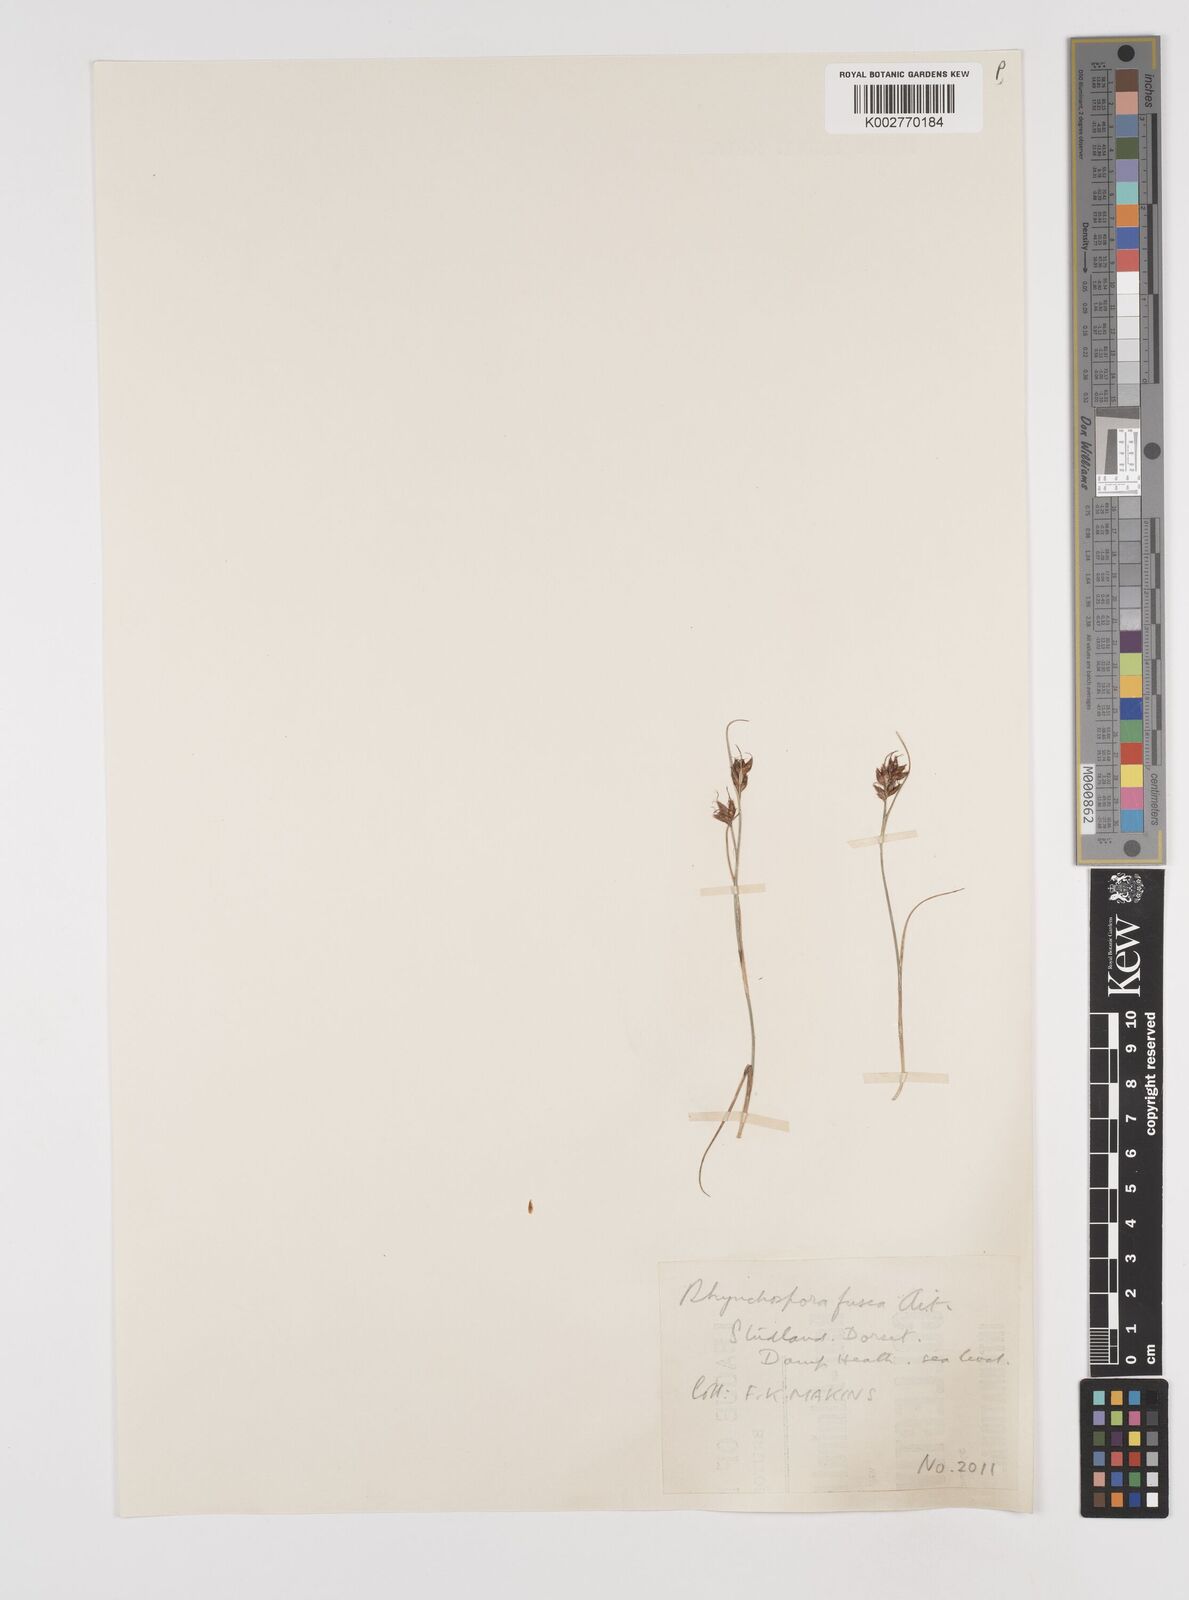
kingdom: Plantae
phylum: Tracheophyta
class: Liliopsida
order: Poales
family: Cyperaceae
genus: Rhynchospora
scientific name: Rhynchospora fusca
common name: Brown beak-sedge
